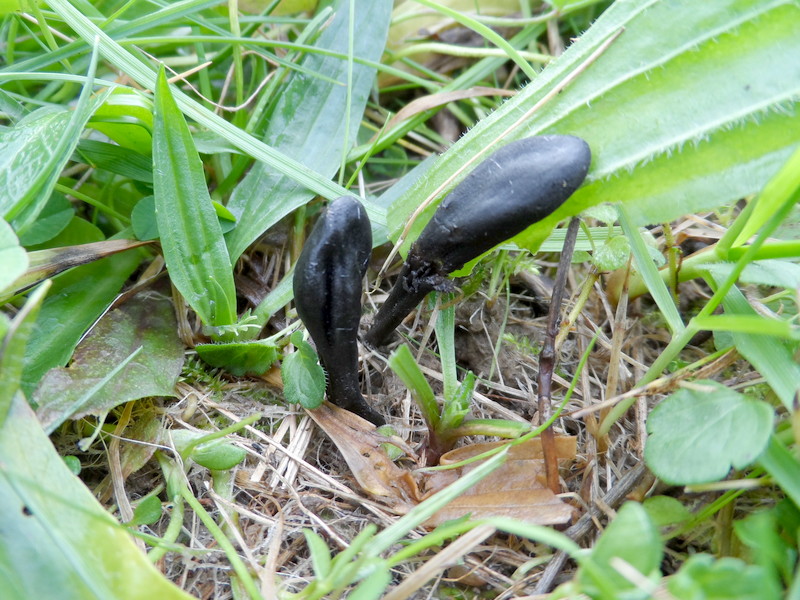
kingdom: Fungi
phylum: Ascomycota
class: Geoglossomycetes
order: Geoglossales
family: Geoglossaceae
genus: Trichoglossum
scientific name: Trichoglossum hirsutum
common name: Hairy earthtongue
